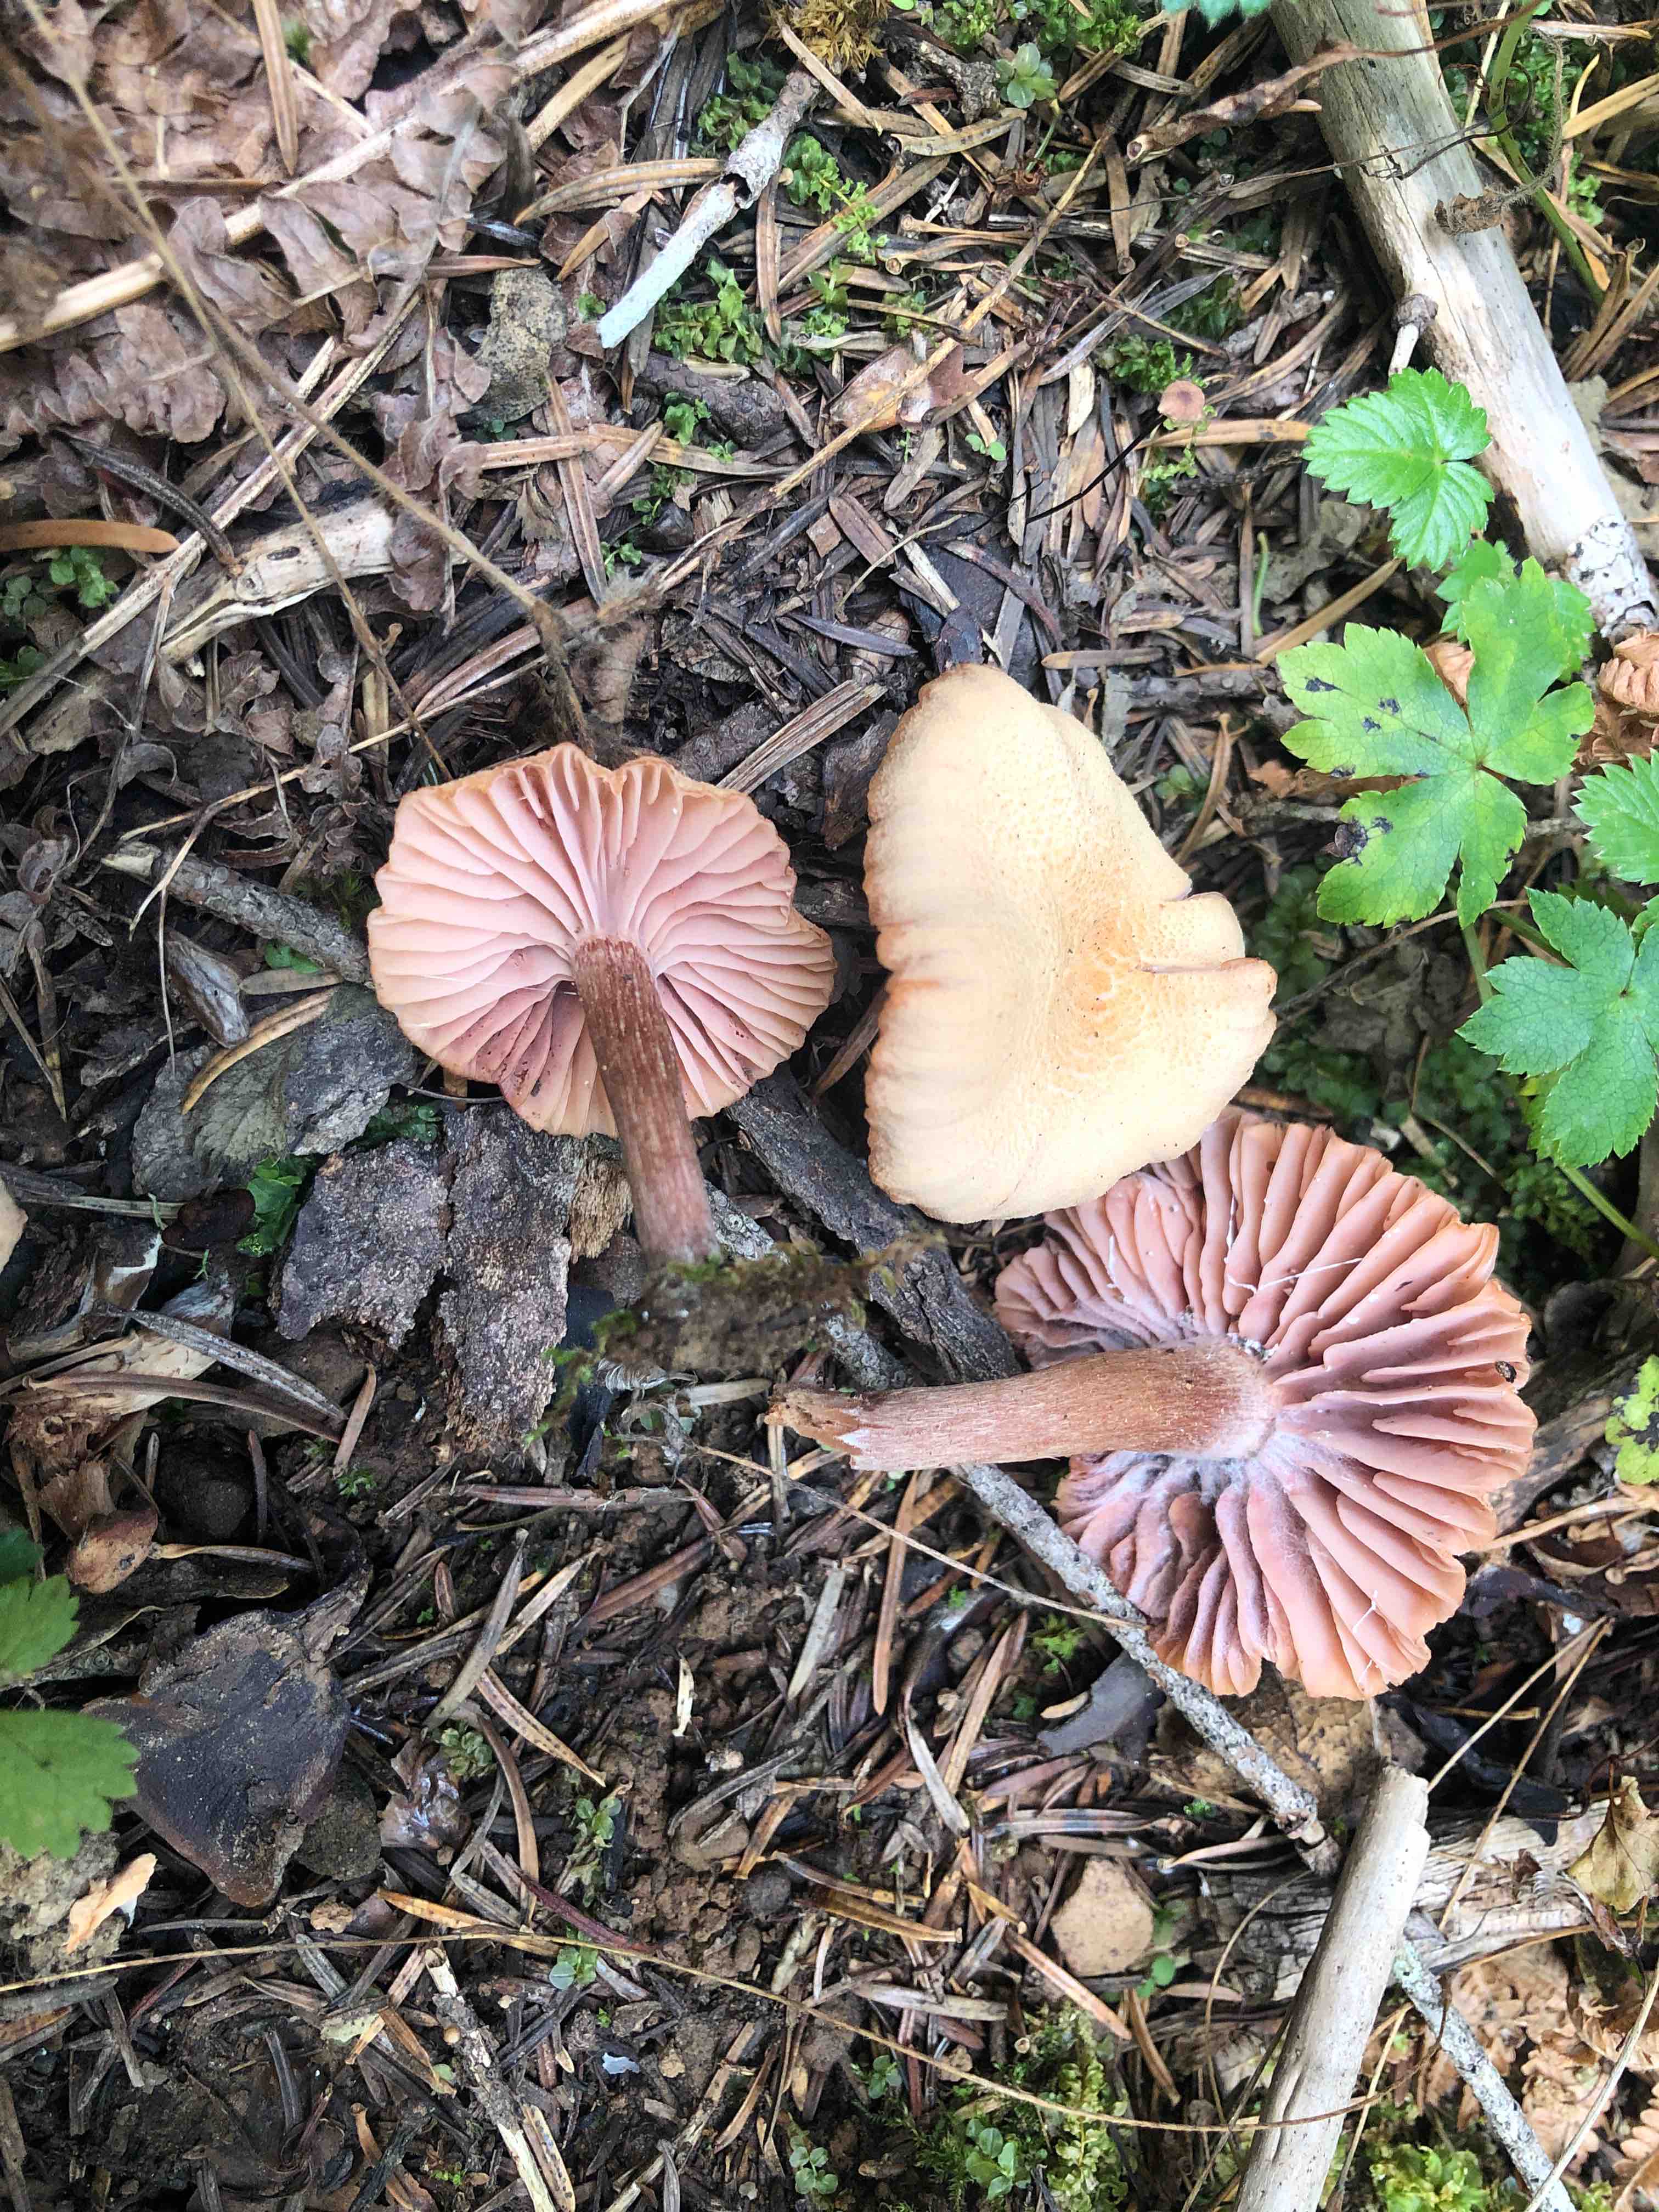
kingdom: Fungi
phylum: Basidiomycota
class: Agaricomycetes
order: Agaricales
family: Hydnangiaceae
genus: Laccaria
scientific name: Laccaria laccata
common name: rød ametysthat
